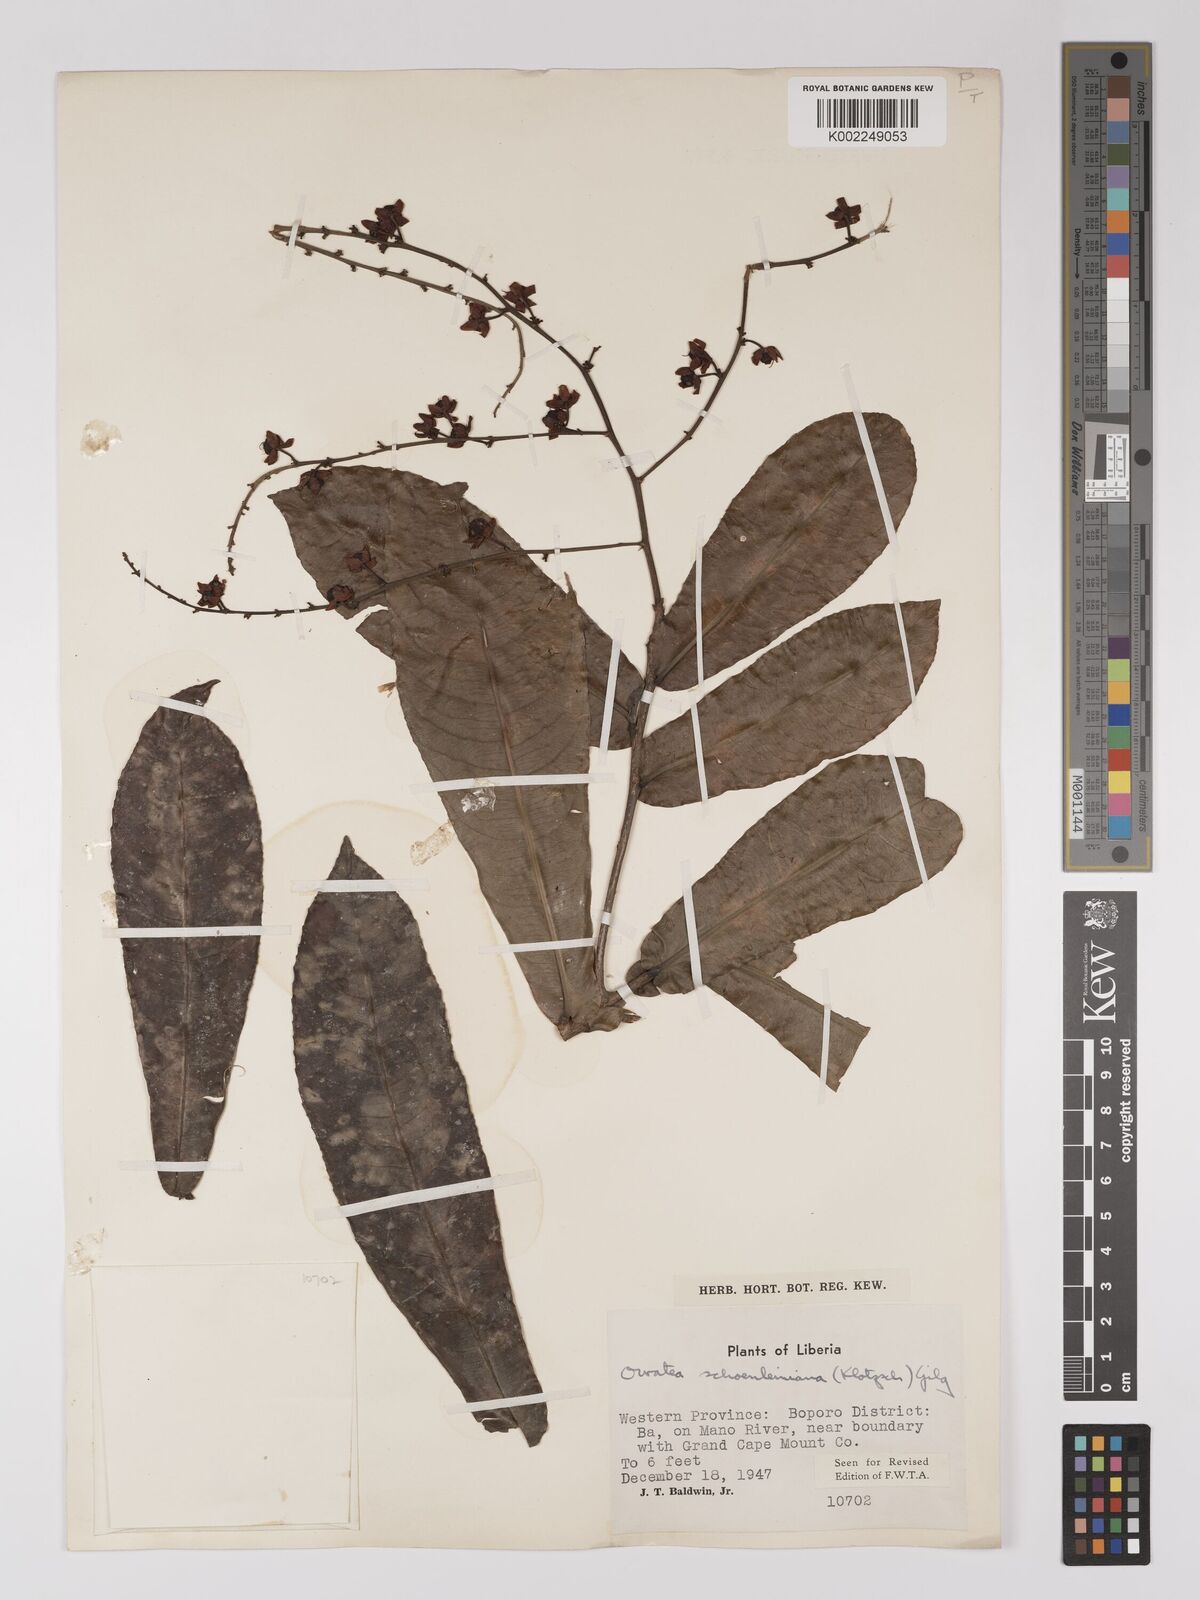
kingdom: Plantae
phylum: Tracheophyta
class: Magnoliopsida
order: Malpighiales
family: Ochnaceae
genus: Campylospermum
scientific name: Campylospermum schoenleinianum
